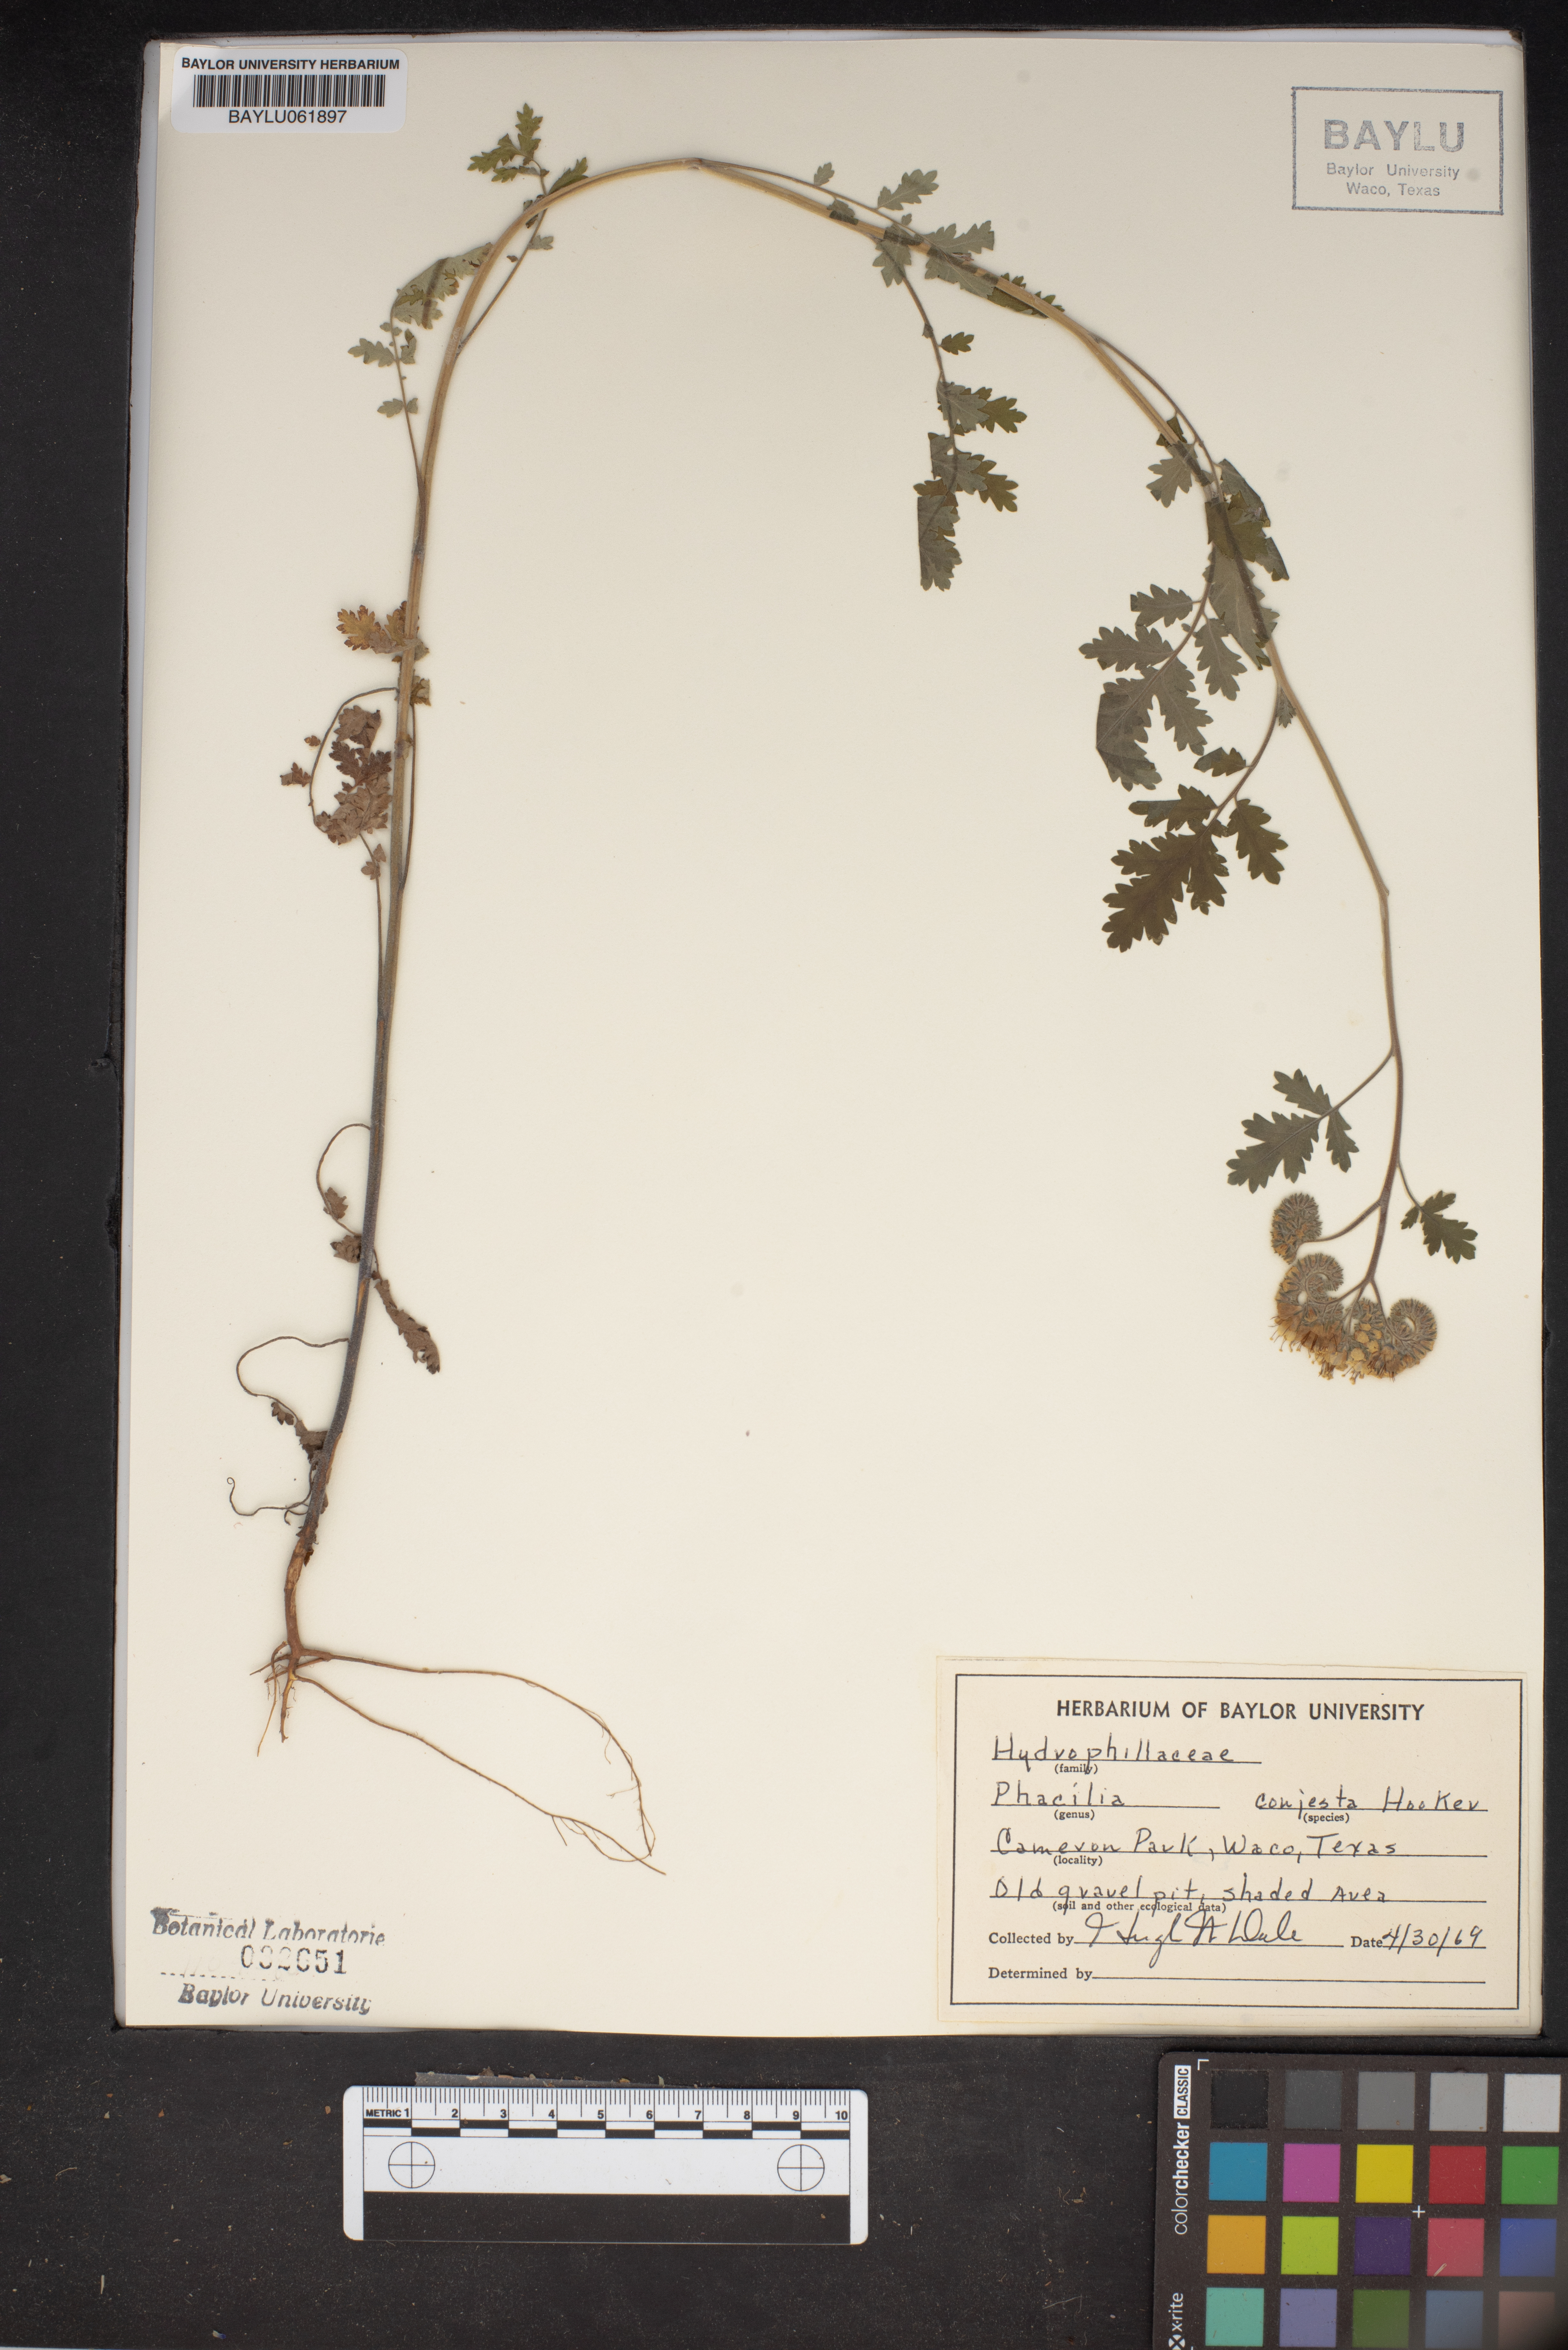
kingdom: Plantae
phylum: Tracheophyta
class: Magnoliopsida
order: Boraginales
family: Hydrophyllaceae
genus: Phacelia
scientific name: Phacelia congesta
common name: Blue curls
